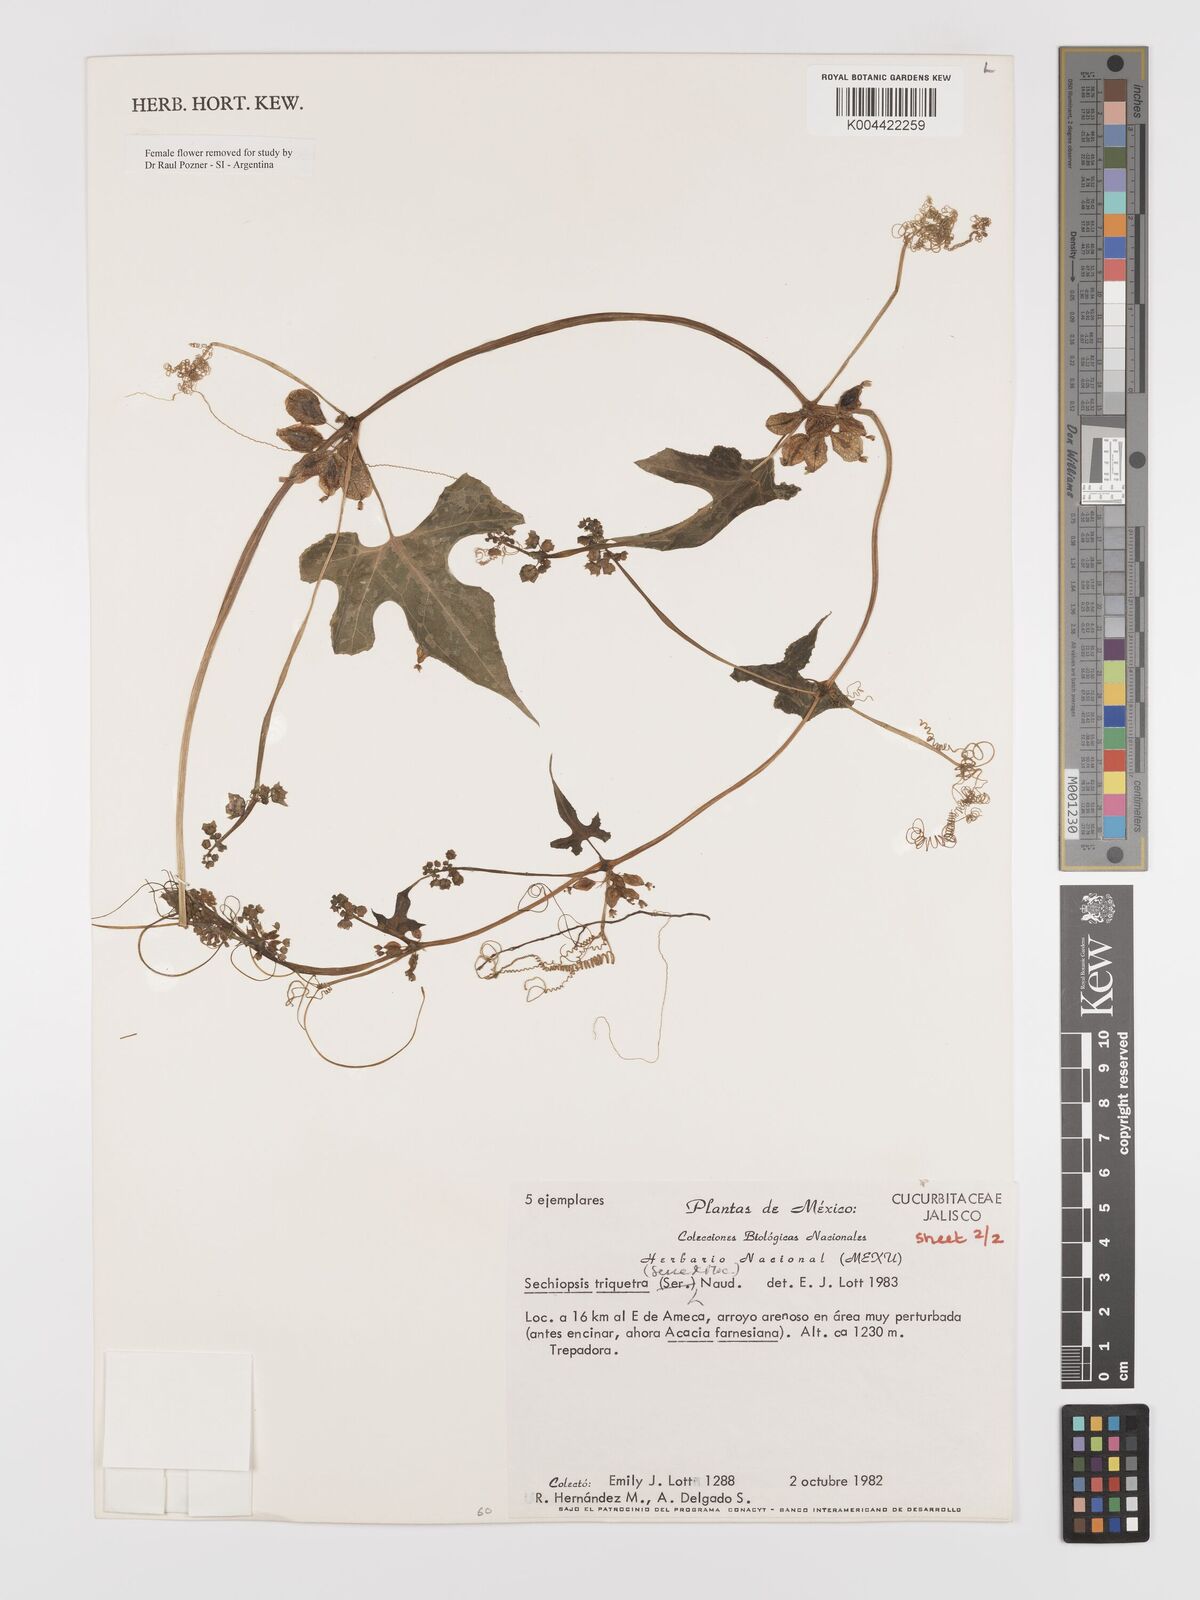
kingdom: Plantae
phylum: Tracheophyta
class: Magnoliopsida
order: Cucurbitales
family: Cucurbitaceae
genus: Sechiopsis
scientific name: Sechiopsis triqueter
